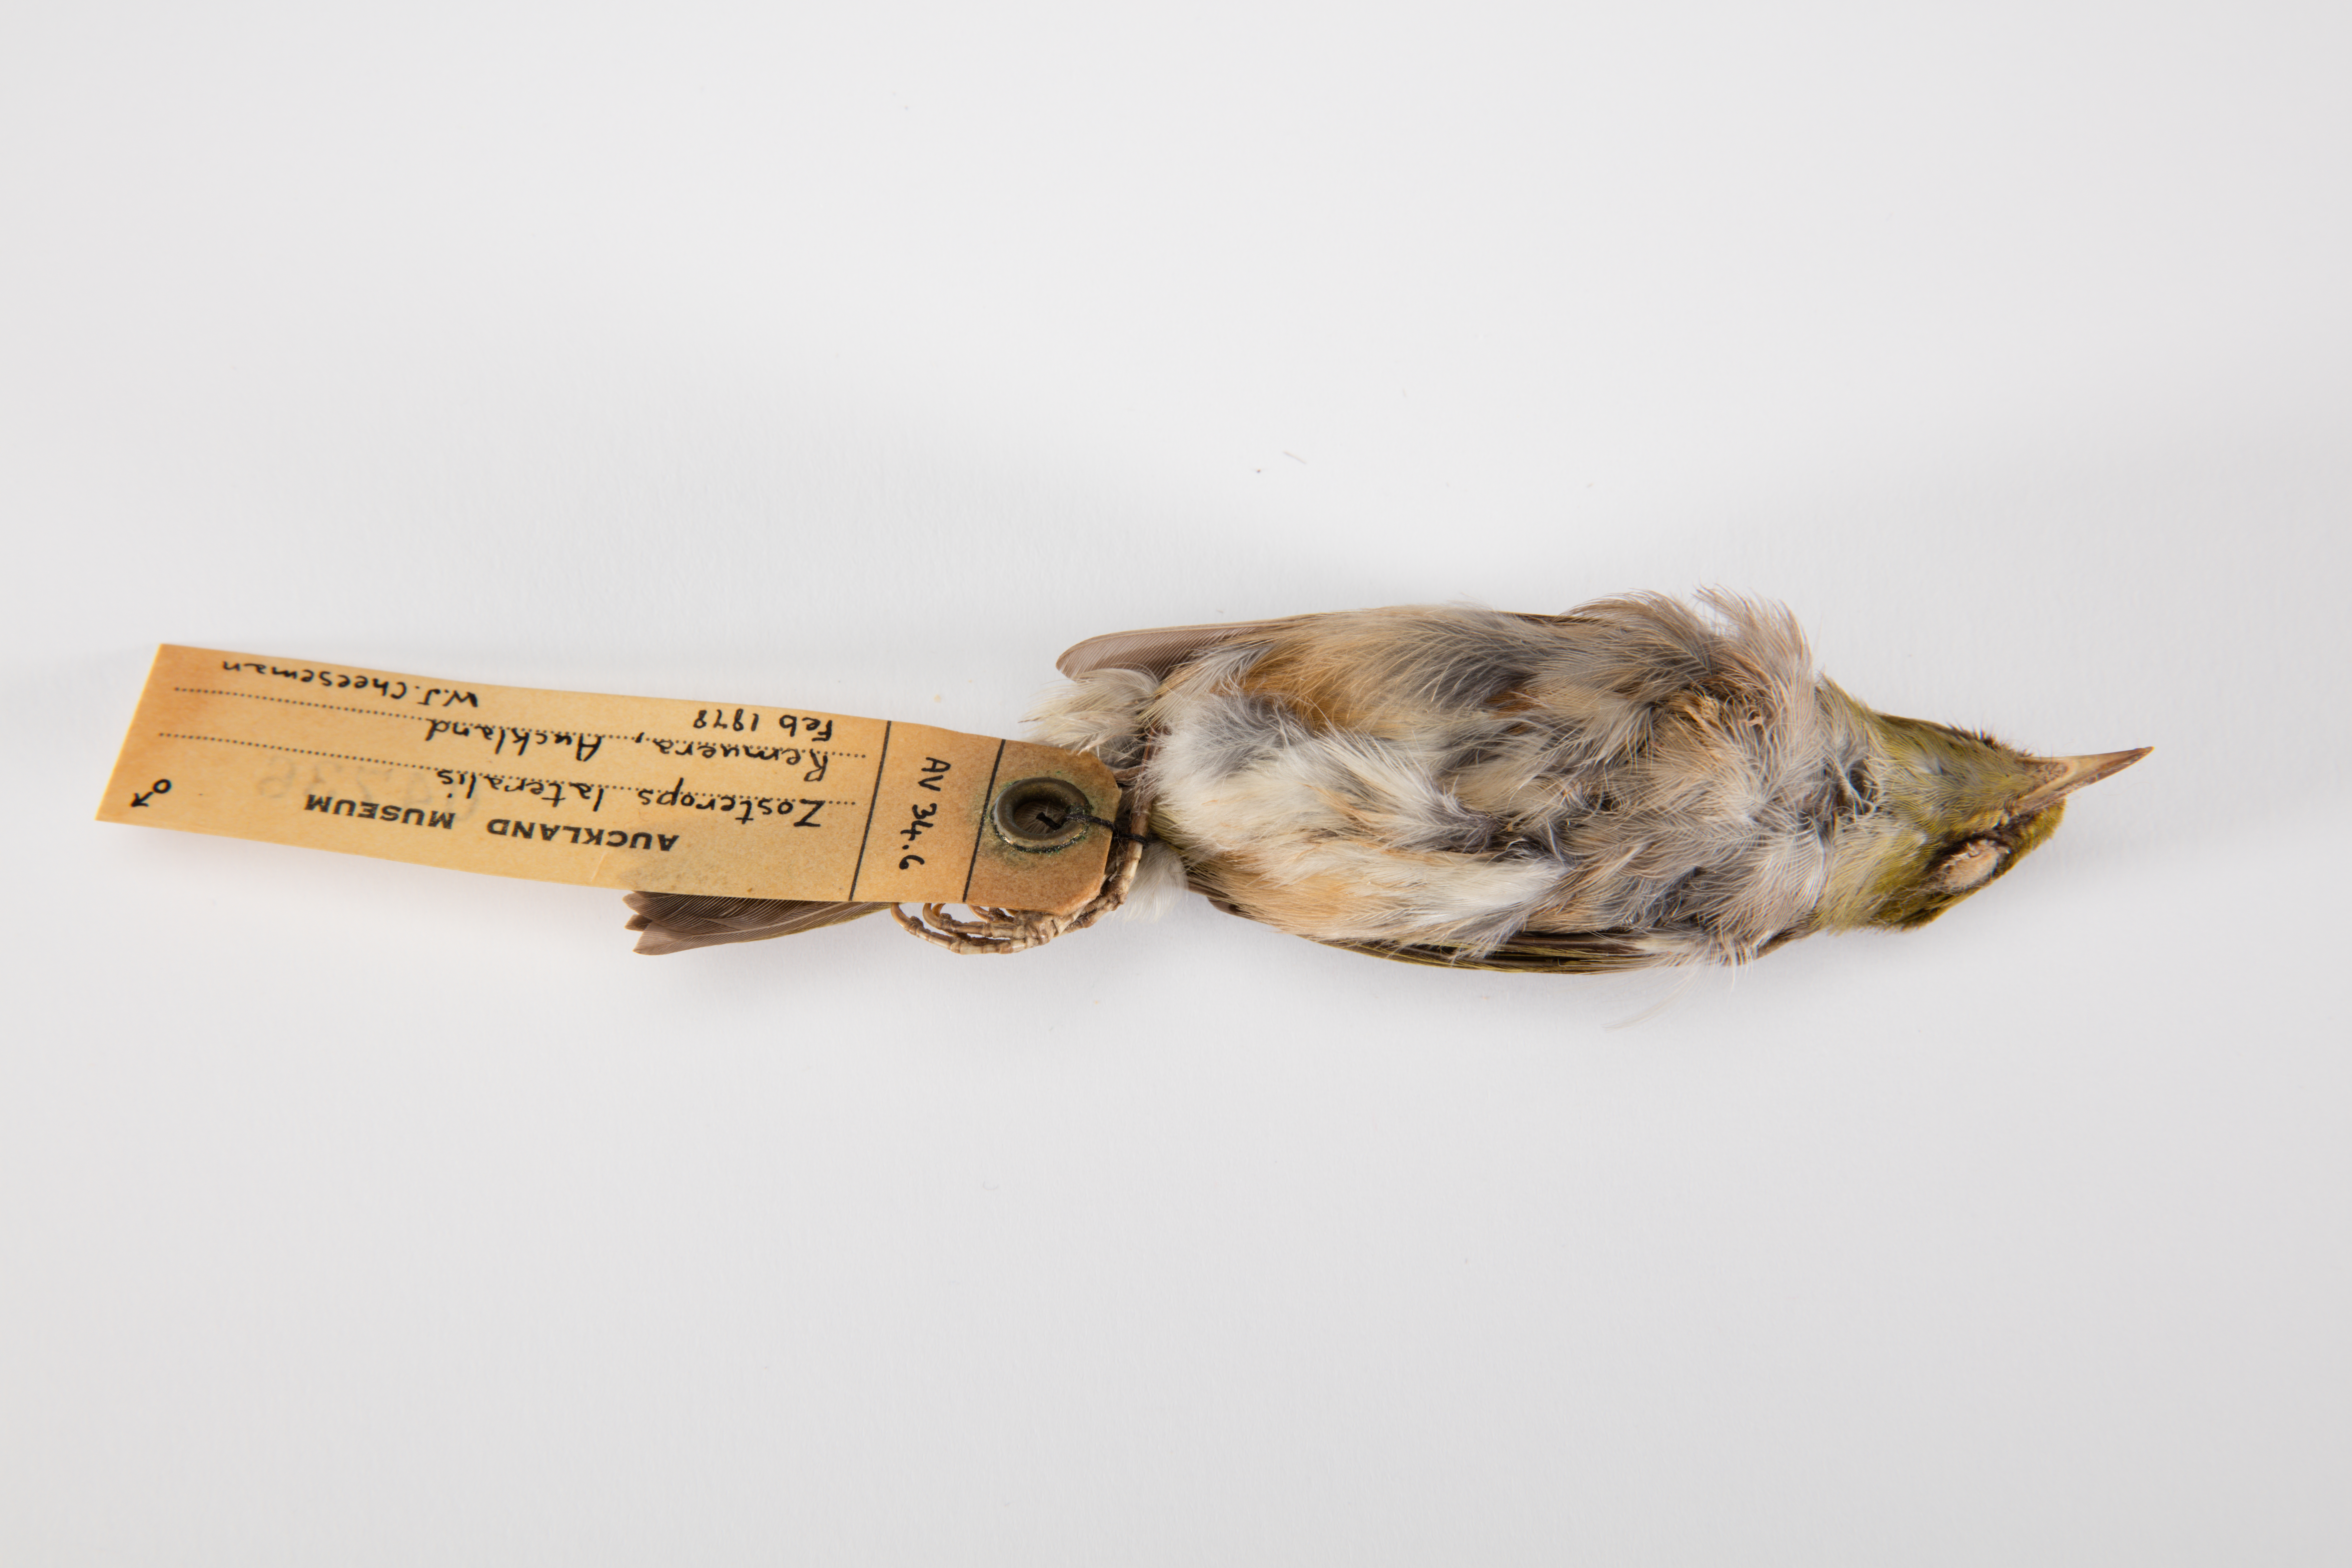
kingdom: Animalia
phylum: Chordata
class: Aves
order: Passeriformes
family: Zosteropidae
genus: Zosterops
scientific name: Zosterops lateralis
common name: Silvereye
